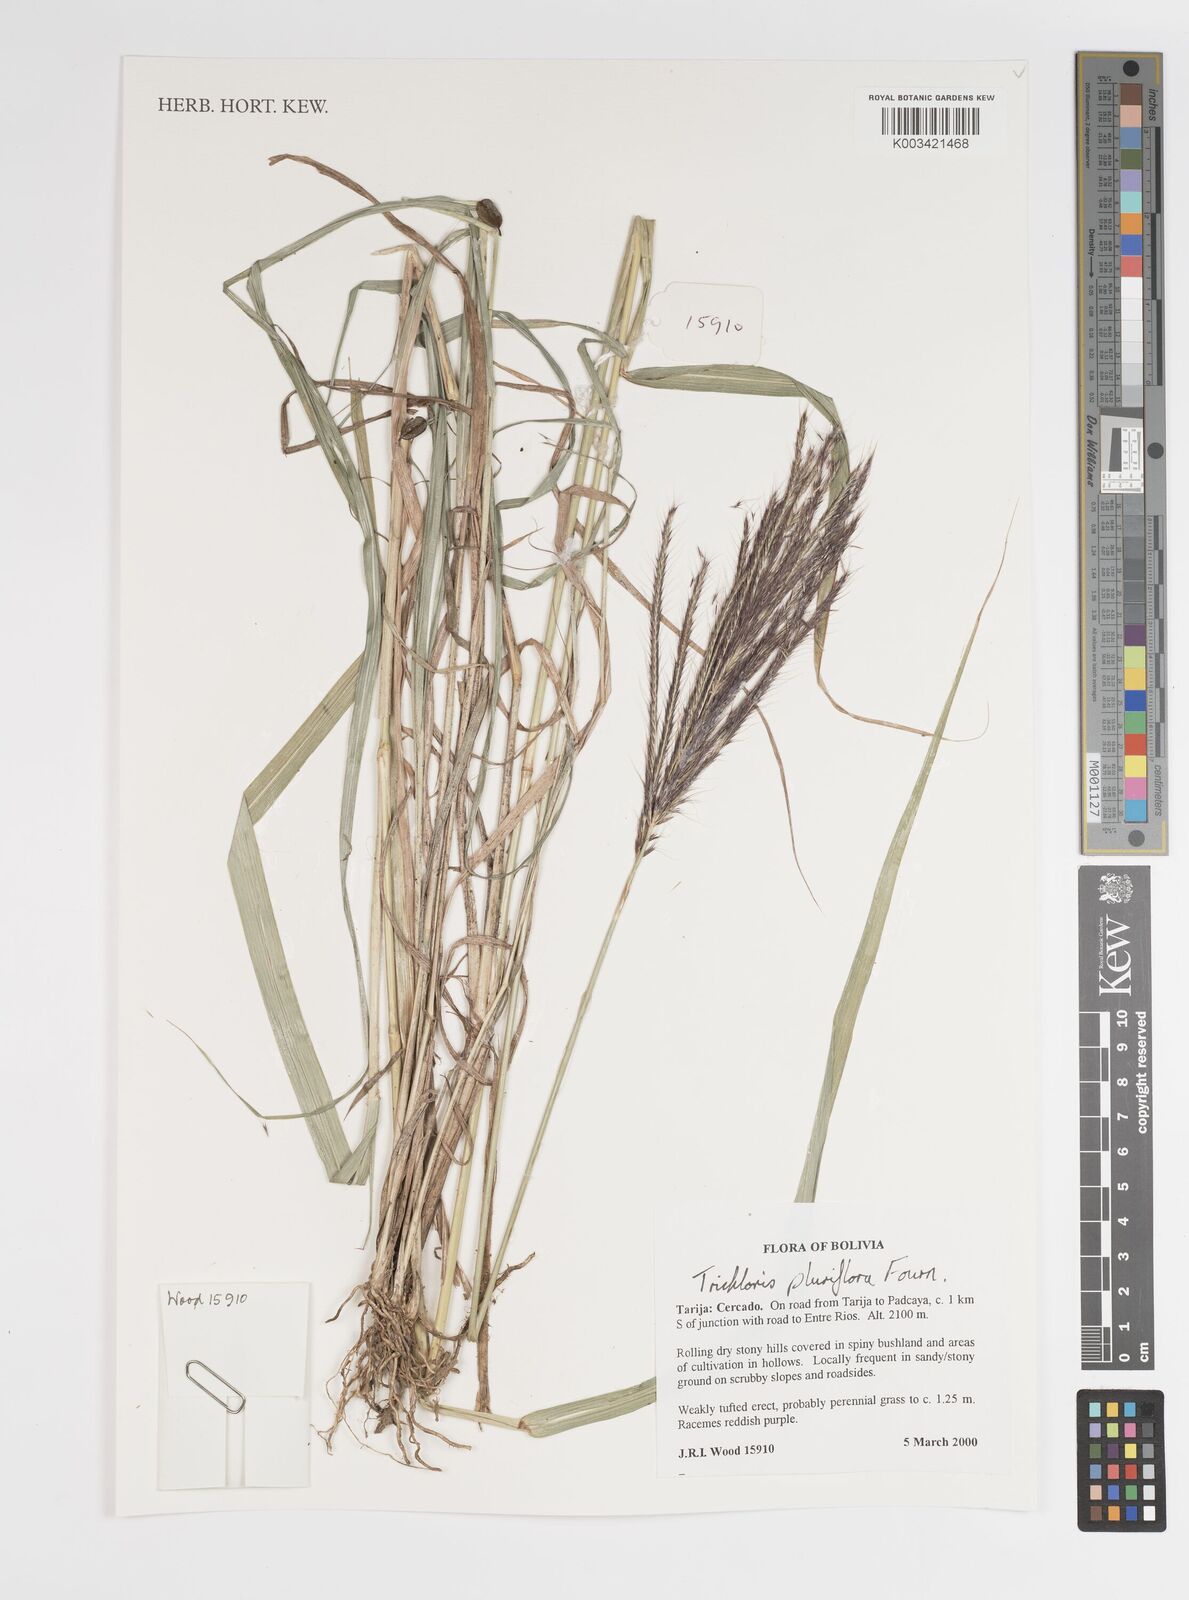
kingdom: Plantae
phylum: Tracheophyta
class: Liliopsida
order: Poales
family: Poaceae
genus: Leptochloa
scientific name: Leptochloa pluriflora
